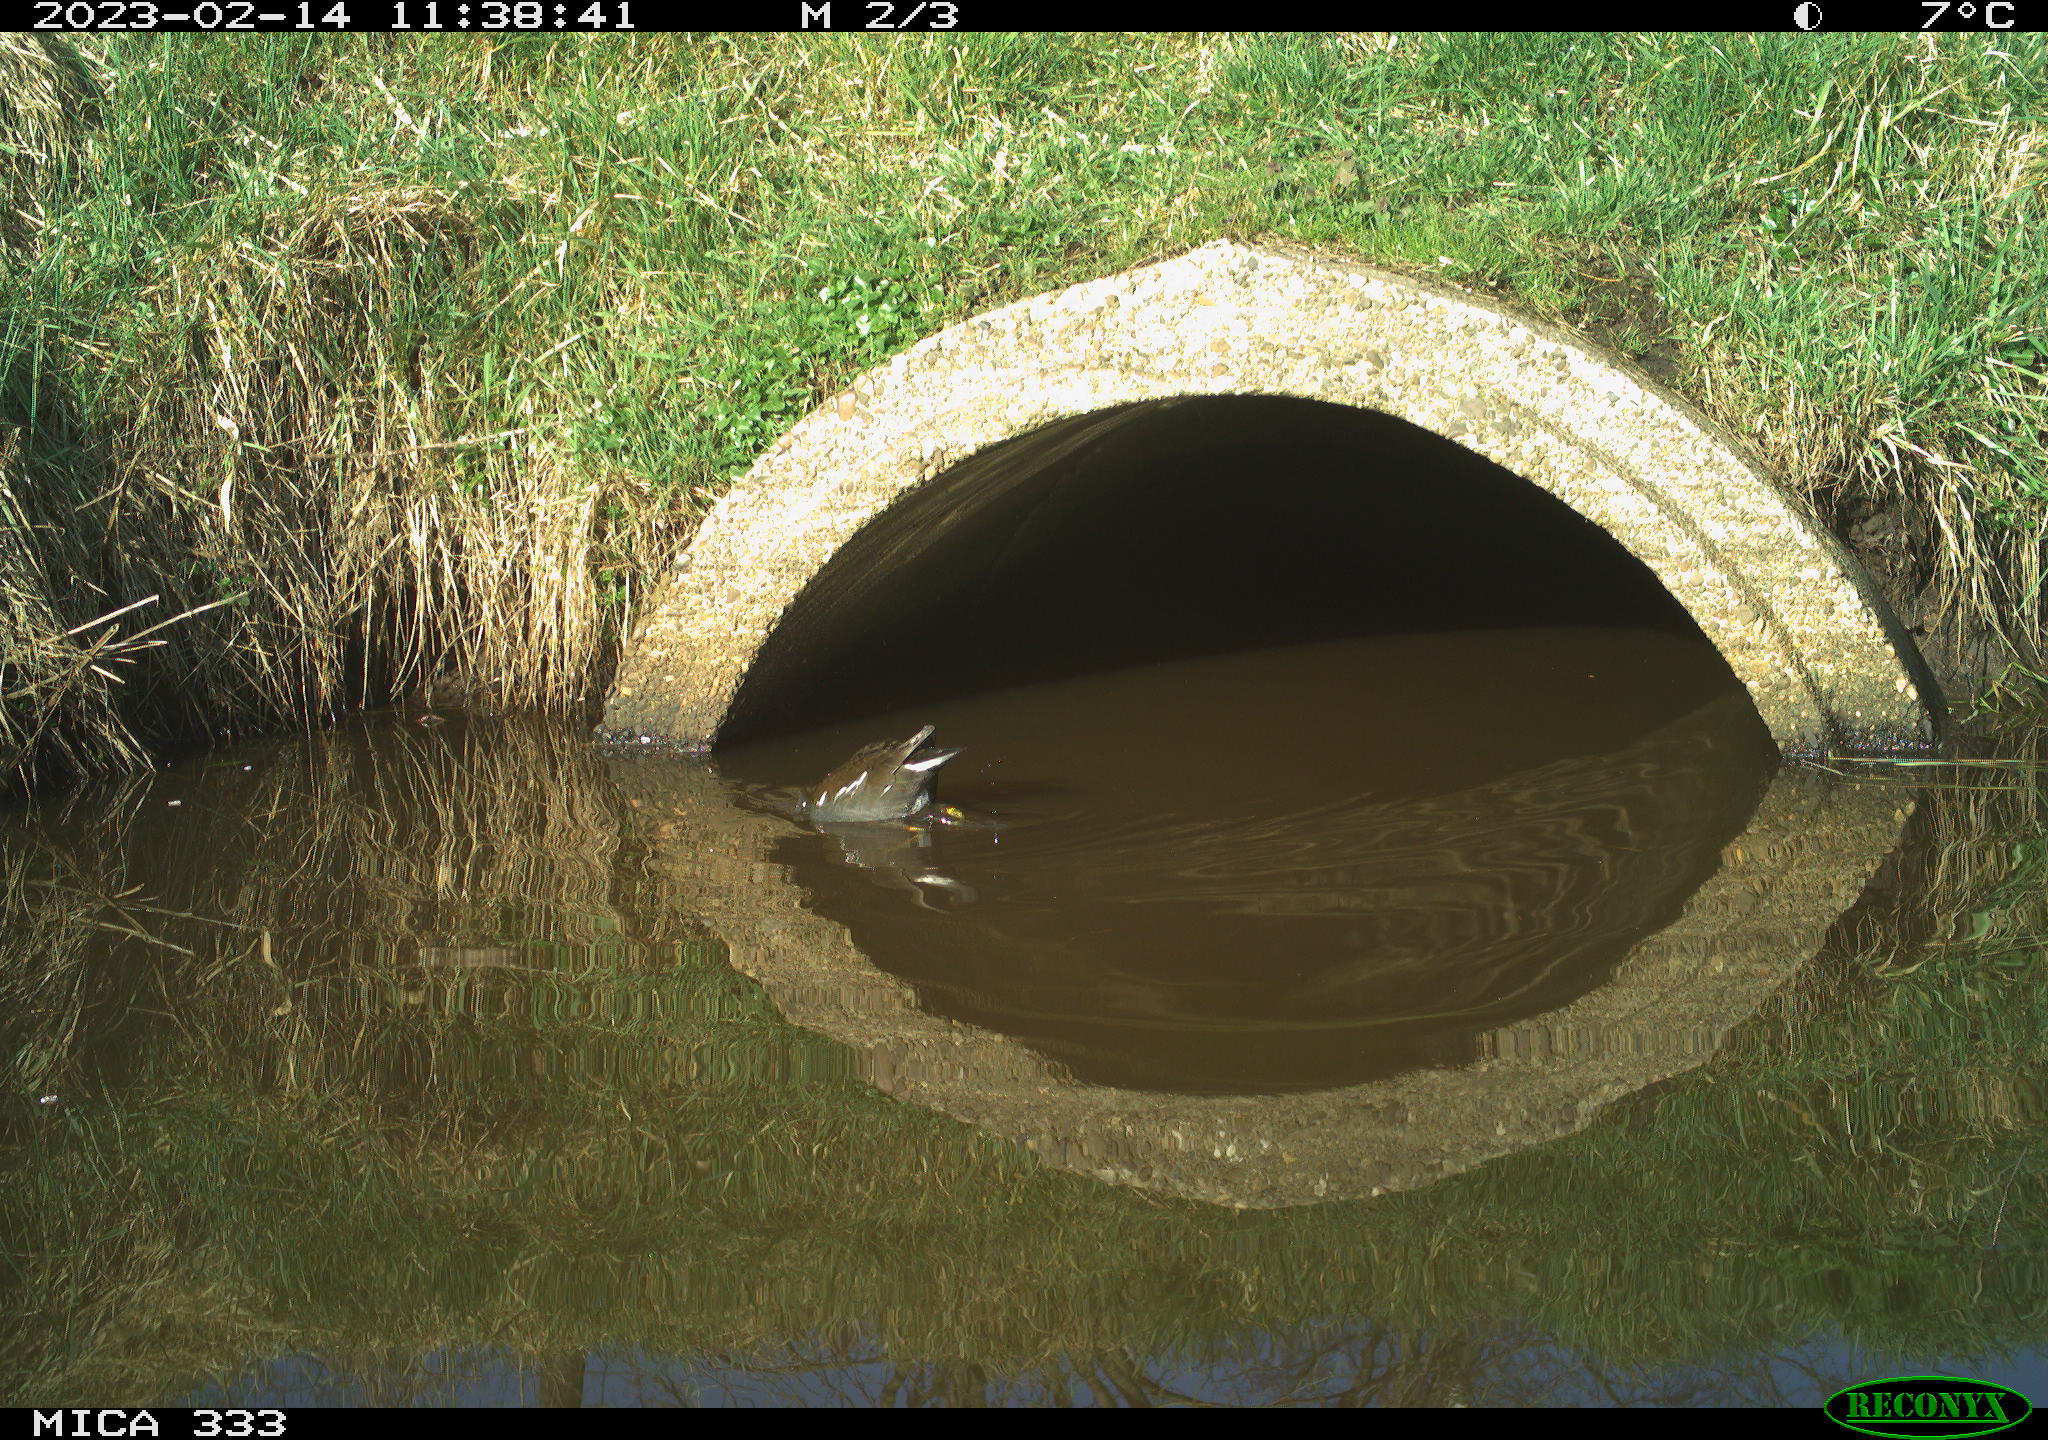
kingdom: Animalia
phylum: Chordata
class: Aves
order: Gruiformes
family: Rallidae
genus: Gallinula
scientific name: Gallinula chloropus
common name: Common moorhen
